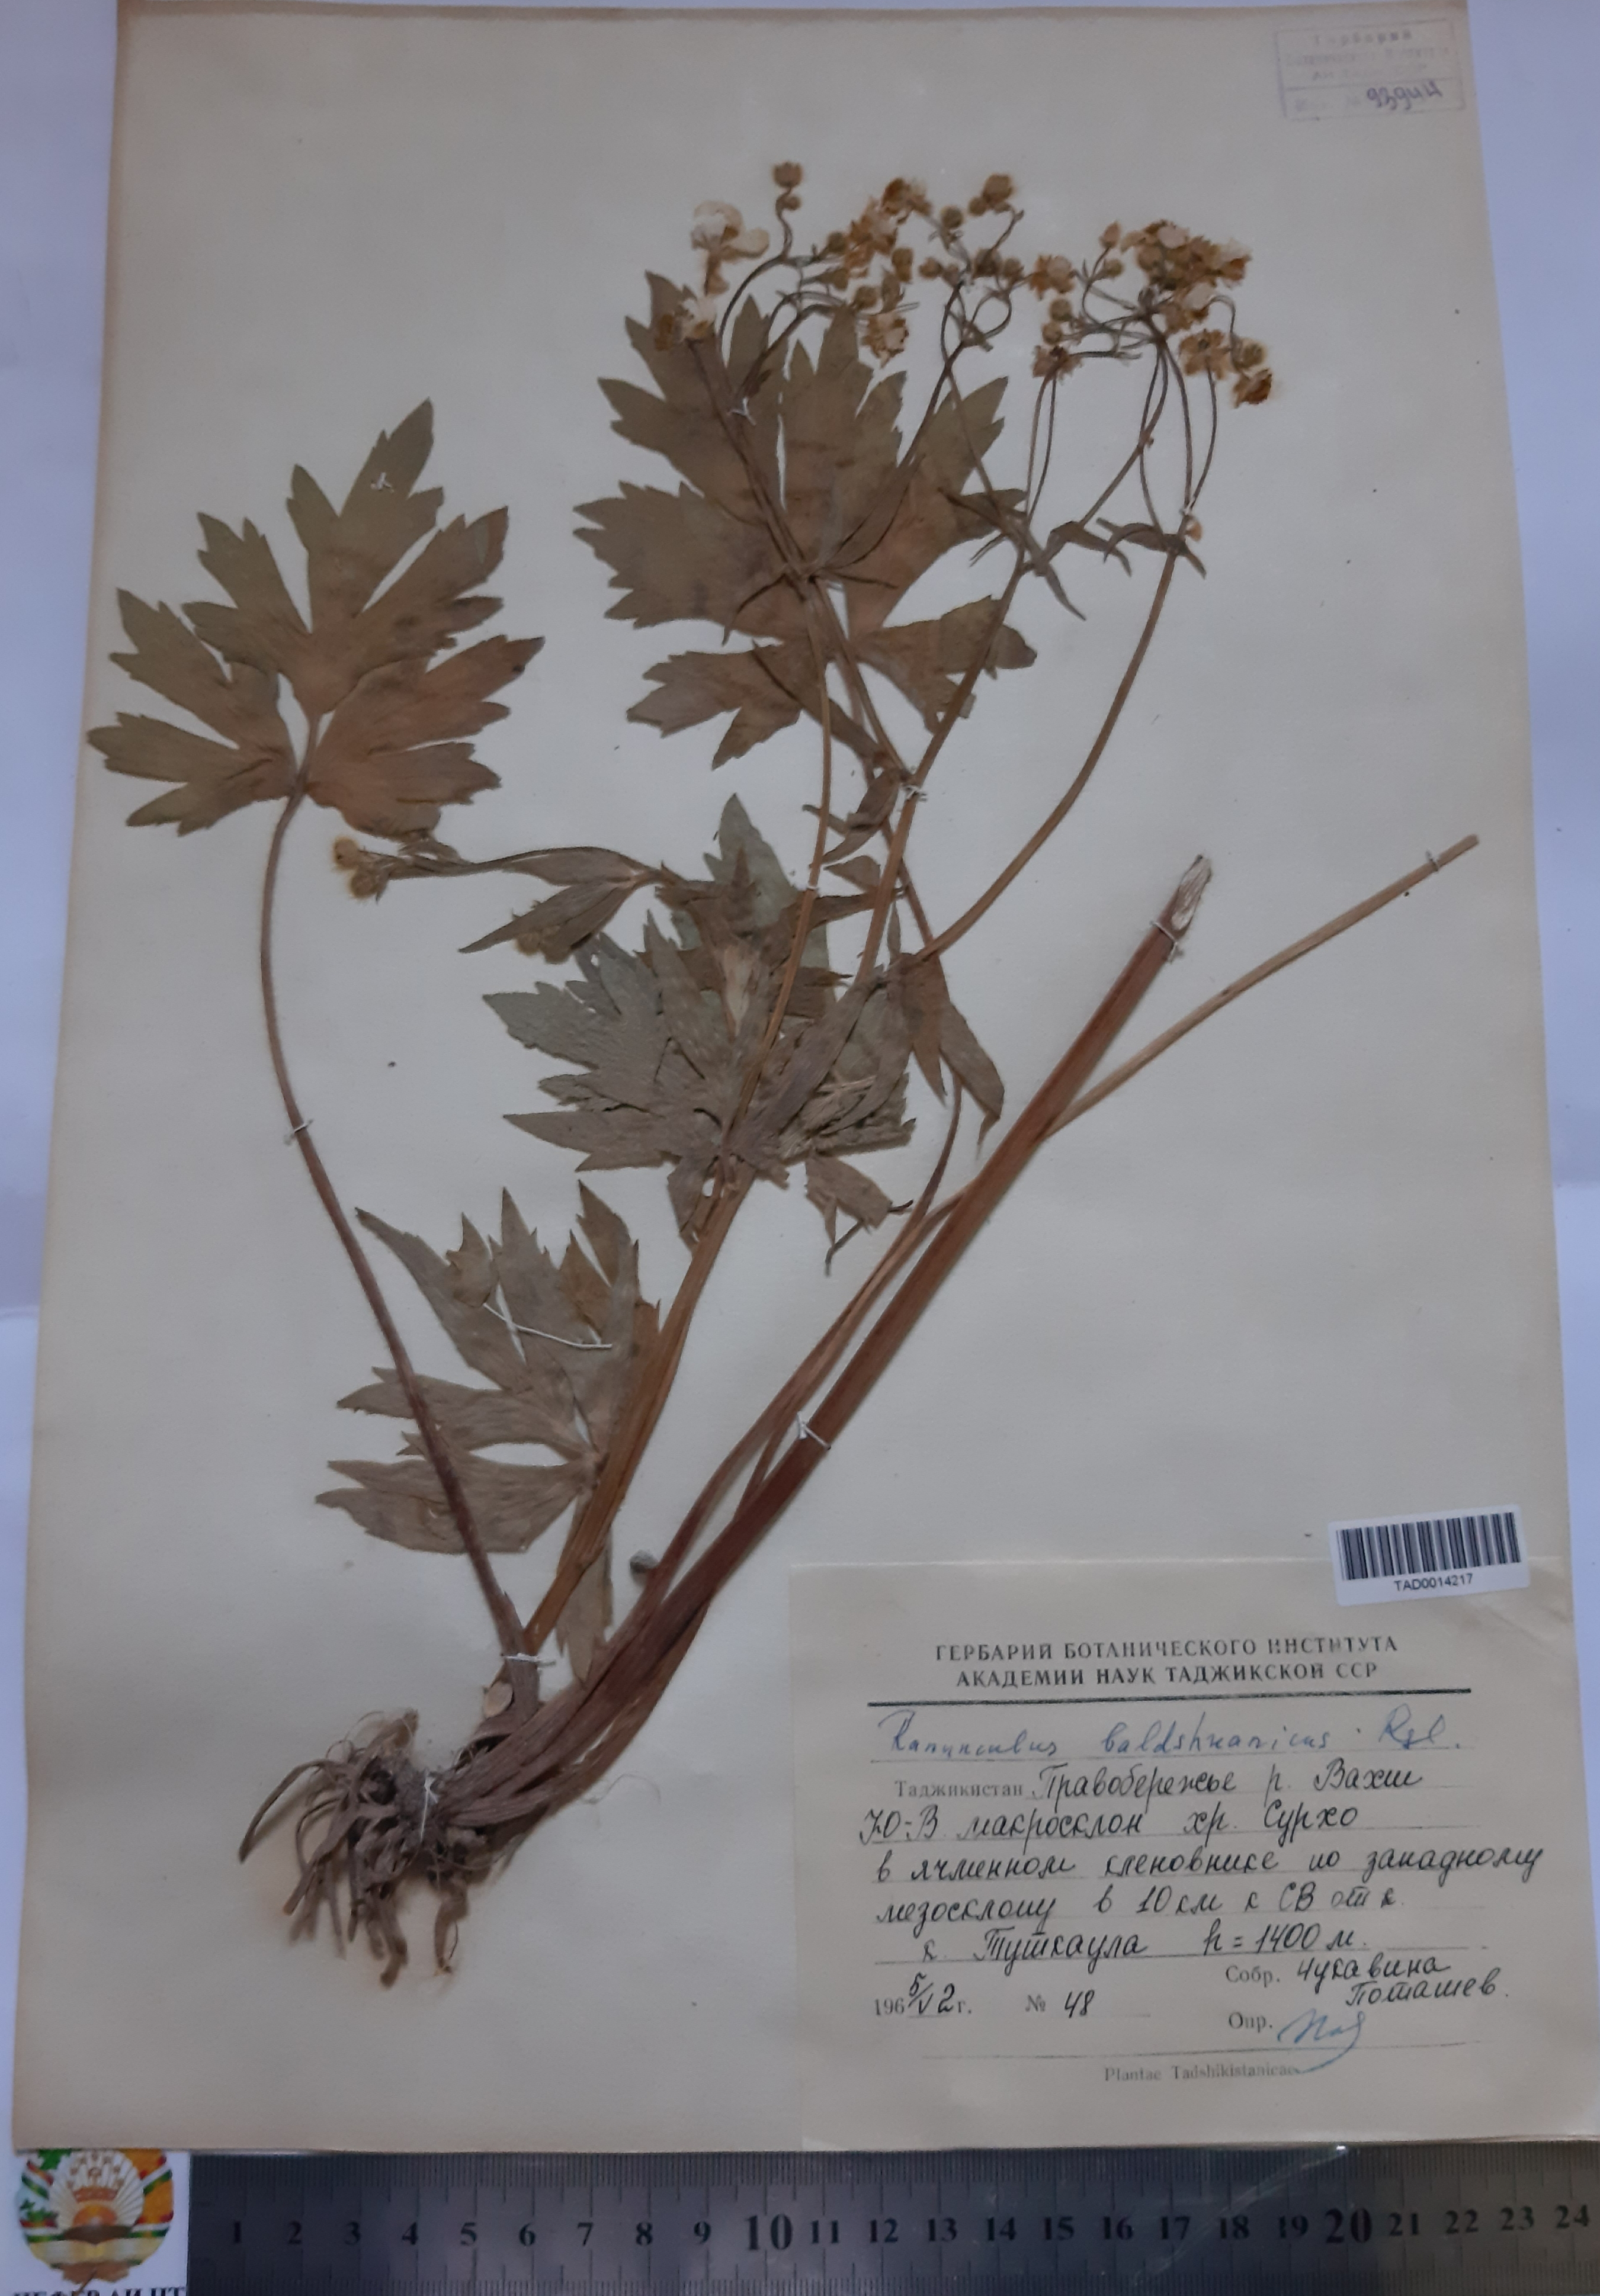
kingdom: Plantae
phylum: Tracheophyta
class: Magnoliopsida
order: Ranunculales
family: Ranunculaceae
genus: Ranunculus
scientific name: Ranunculus baldshuanicus
